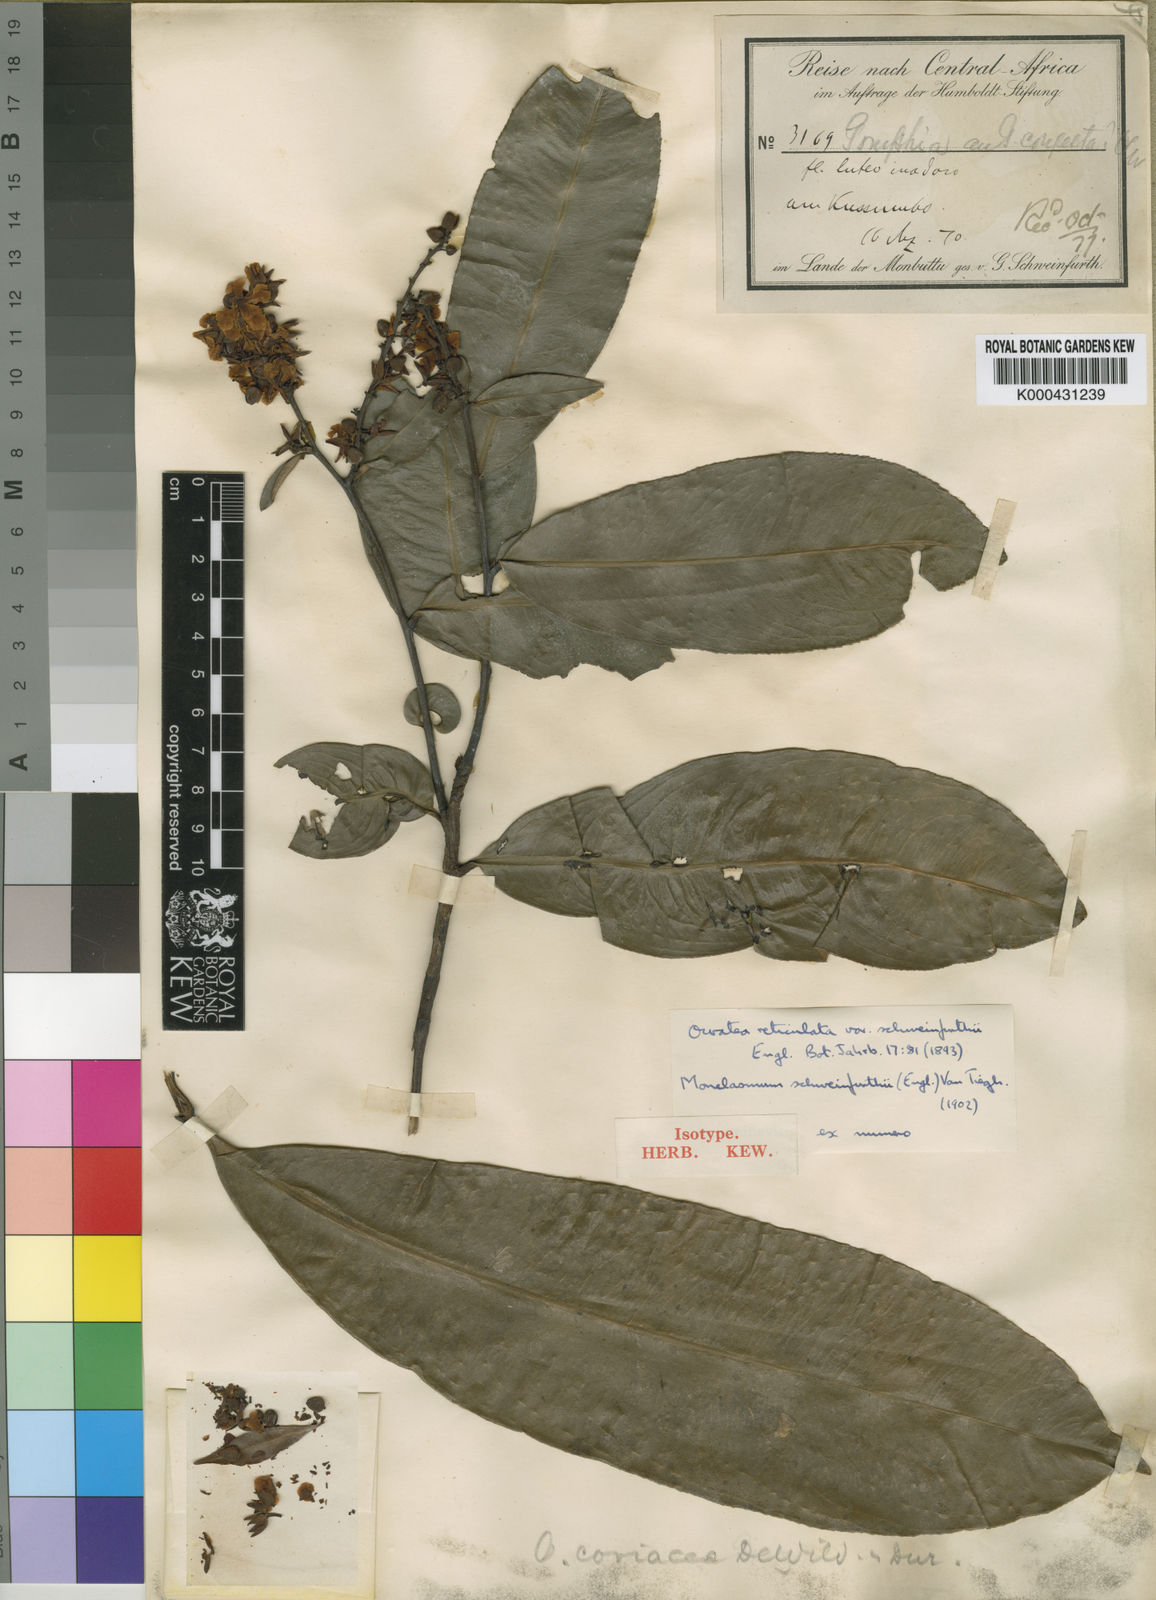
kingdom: Plantae
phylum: Tracheophyta
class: Magnoliopsida
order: Malpighiales
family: Ochnaceae
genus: Gomphia
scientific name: Gomphia densiflora
